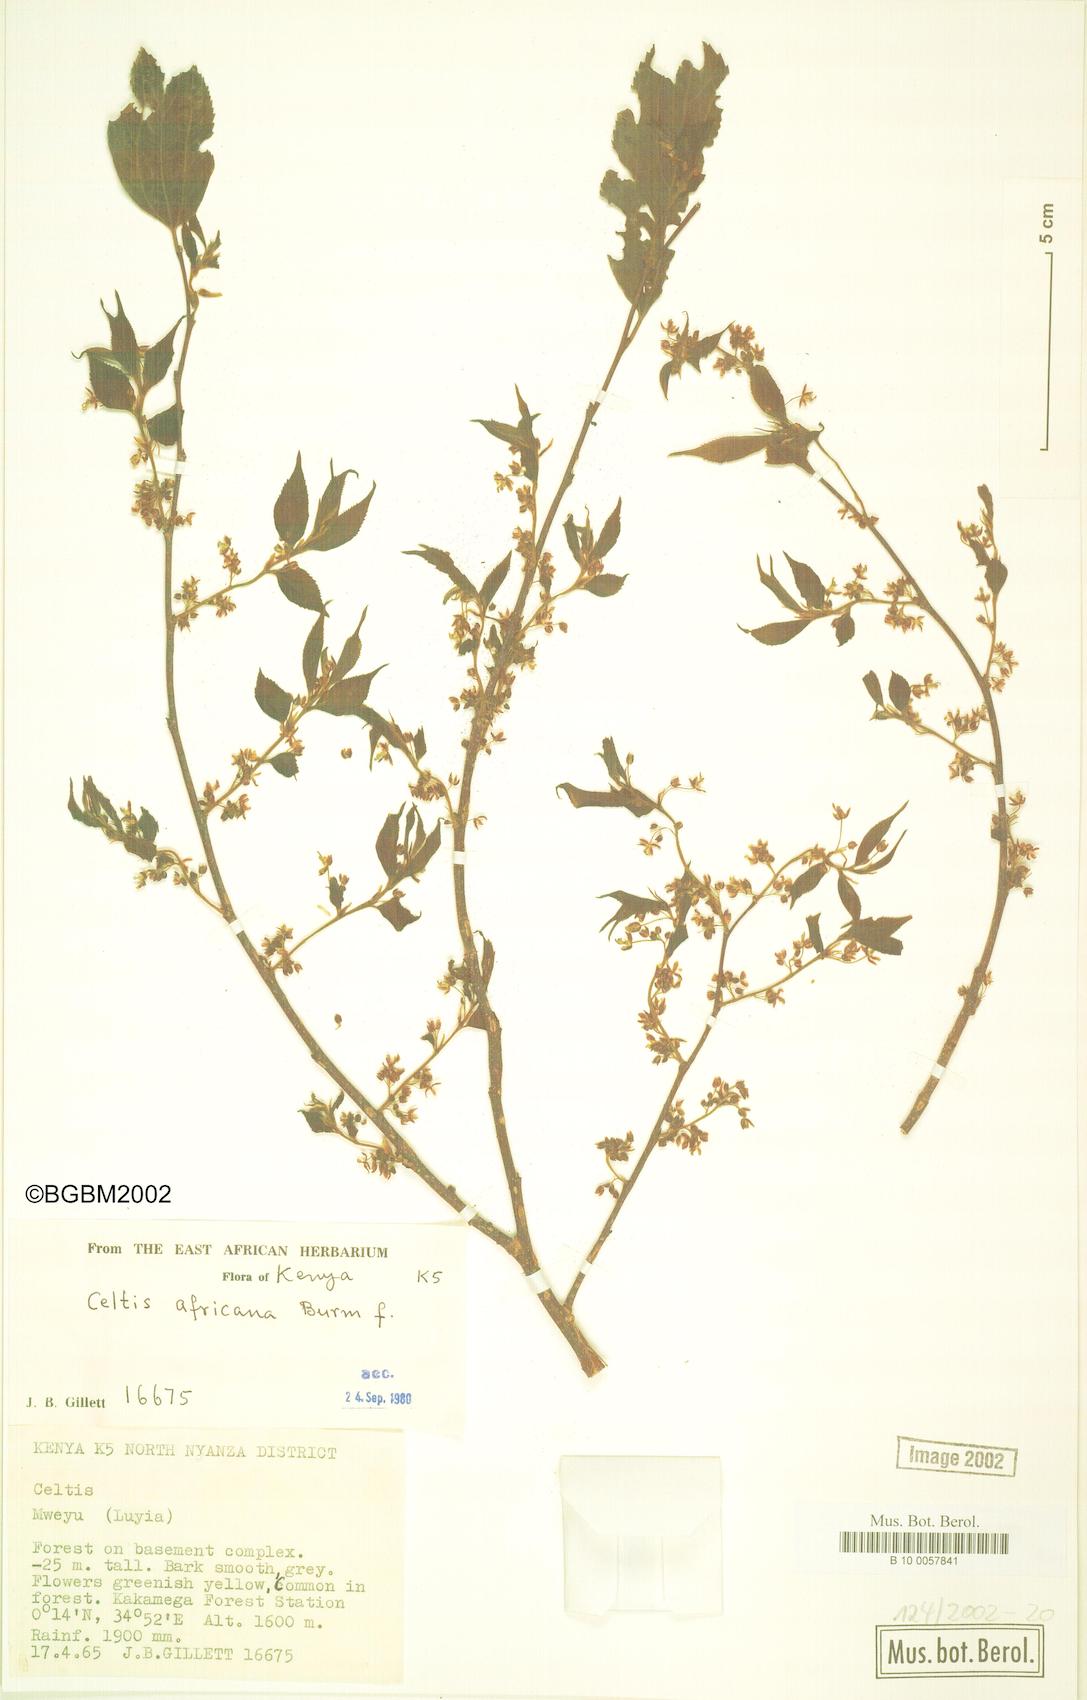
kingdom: Plantae
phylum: Tracheophyta
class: Magnoliopsida
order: Rosales
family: Cannabaceae
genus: Celtis
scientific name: Celtis africana
